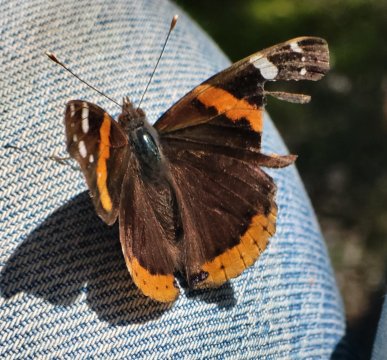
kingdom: Animalia
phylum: Arthropoda
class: Insecta
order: Lepidoptera
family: Nymphalidae
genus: Vanessa
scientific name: Vanessa atalanta
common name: Red Admiral
